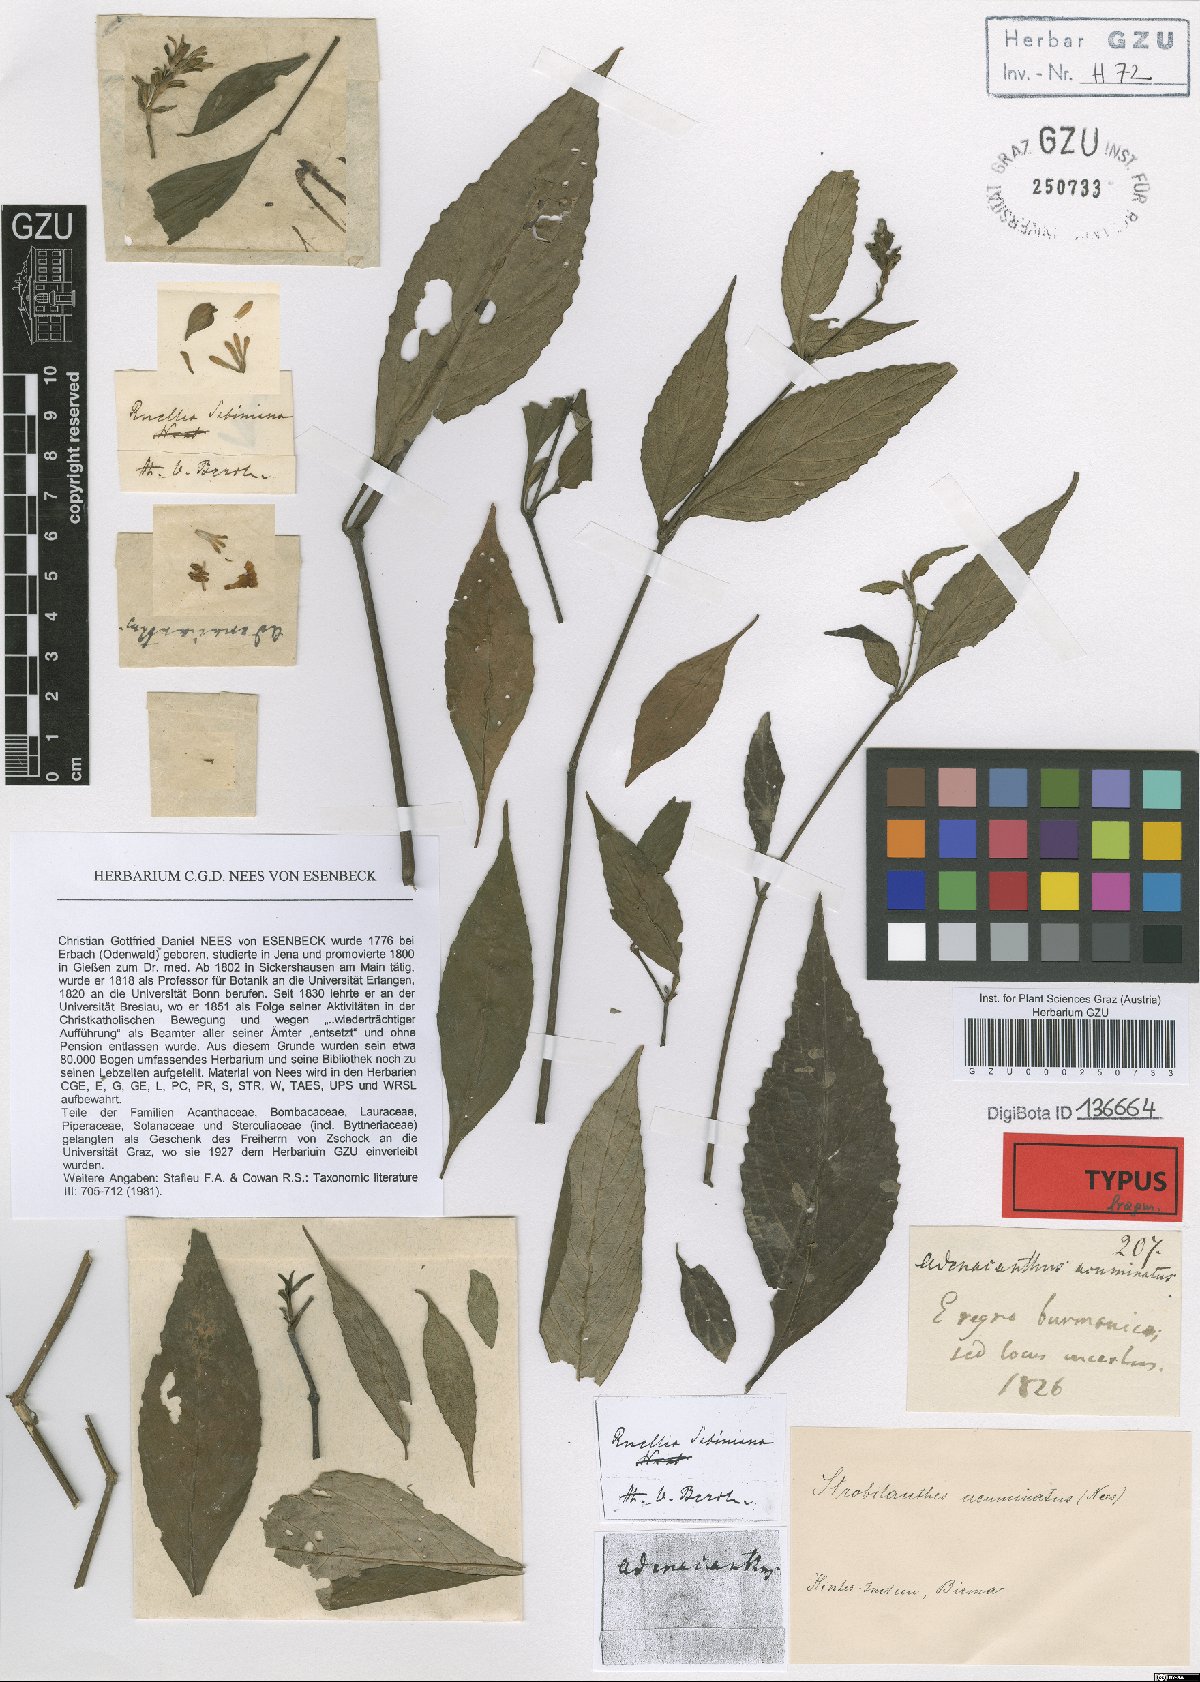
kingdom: Plantae
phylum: Tracheophyta
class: Magnoliopsida
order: Lamiales
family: Acanthaceae
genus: Strobilanthes
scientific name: Strobilanthes repanda
